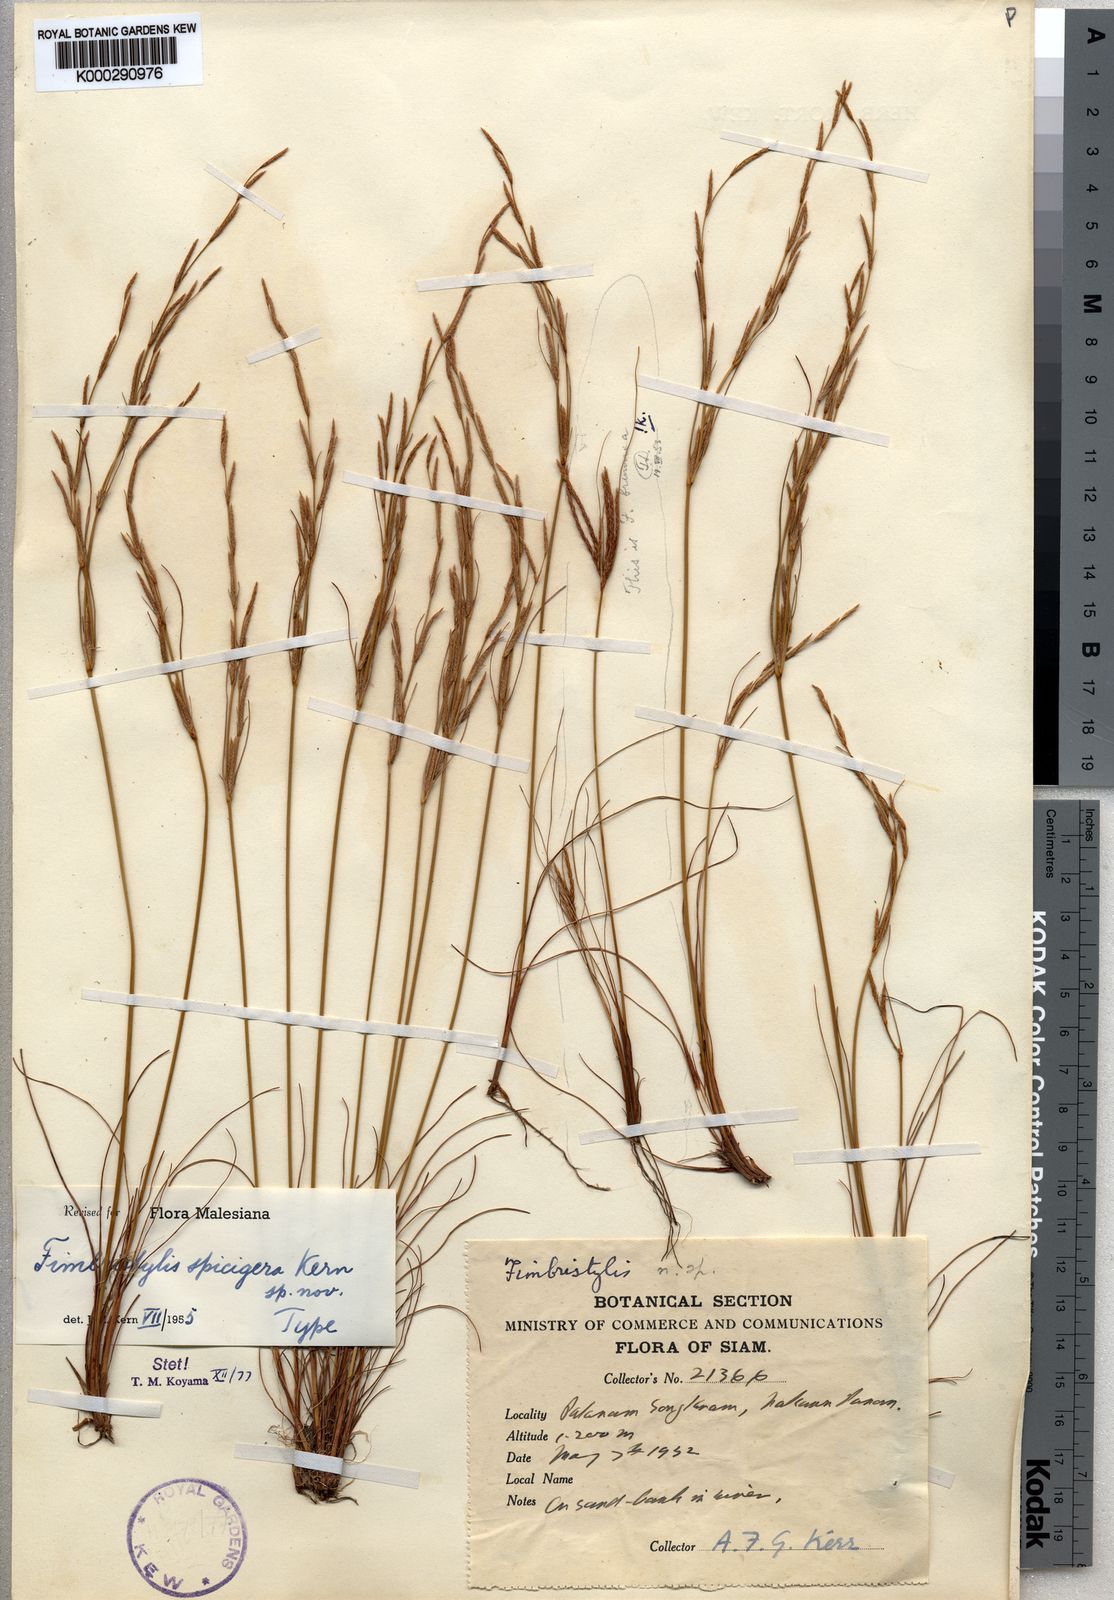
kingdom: Plantae
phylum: Tracheophyta
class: Liliopsida
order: Poales
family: Cyperaceae
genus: Fimbristylis
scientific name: Fimbristylis spicigera
